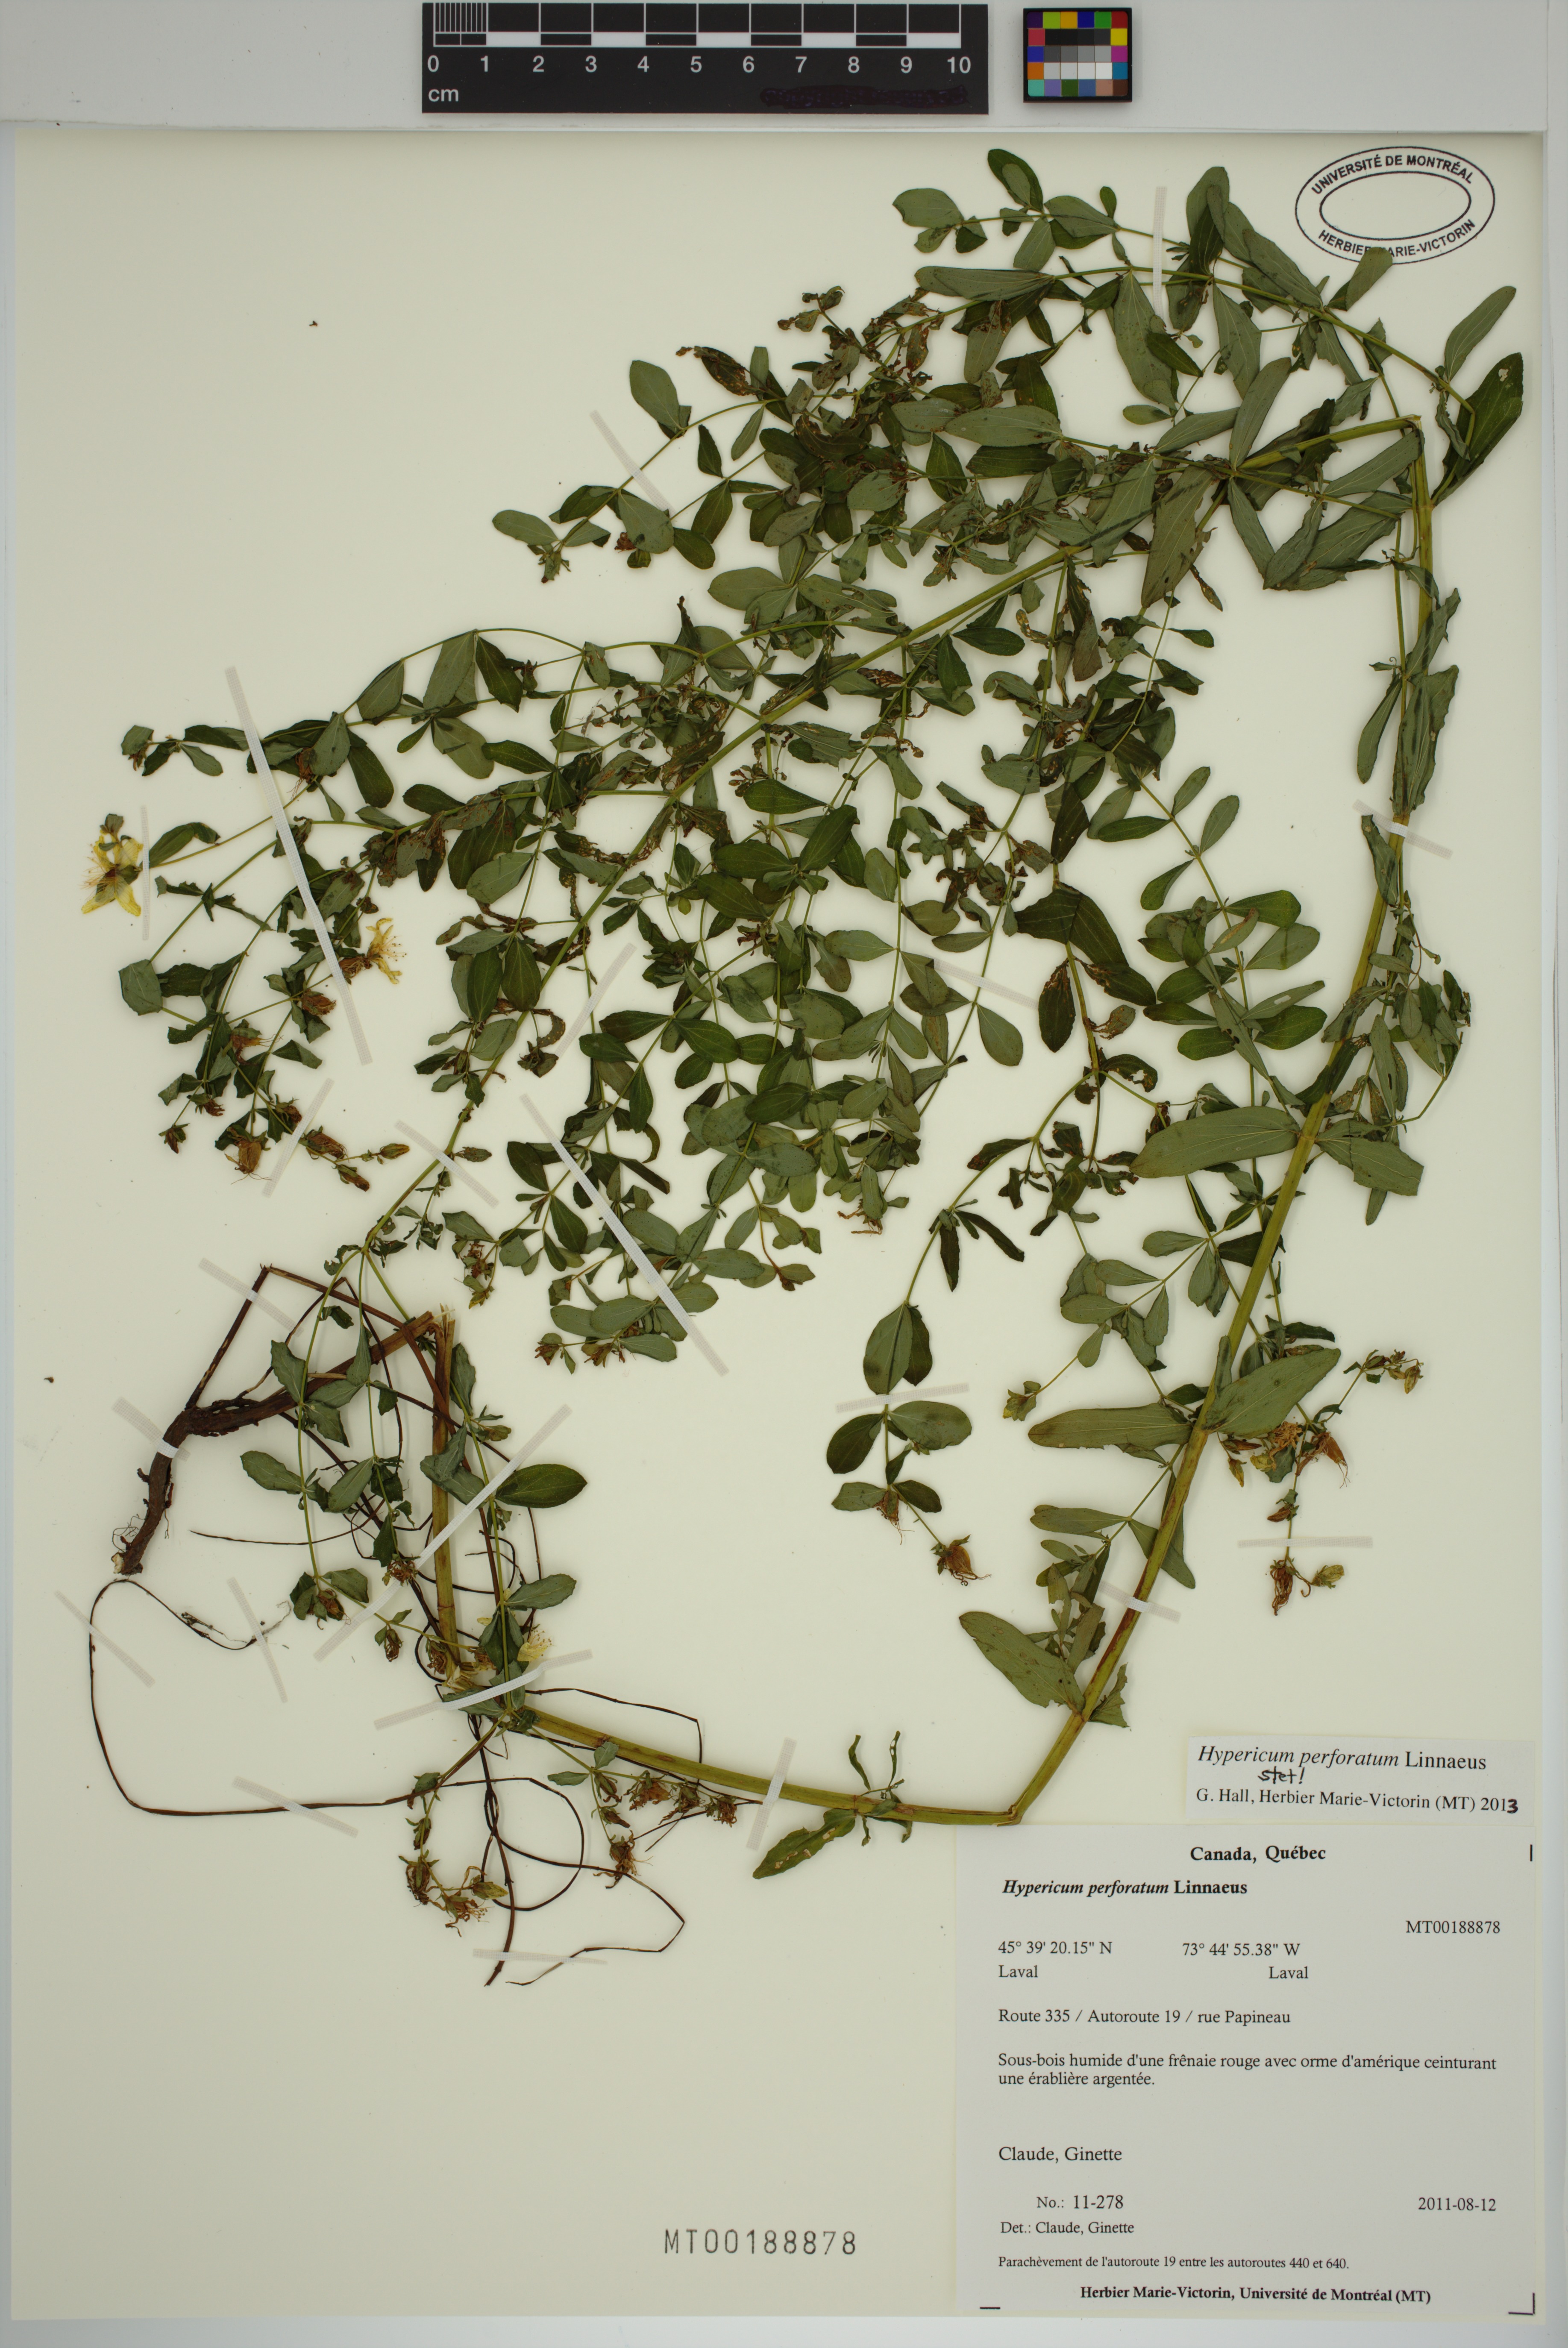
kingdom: Plantae
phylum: Tracheophyta
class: Magnoliopsida
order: Malpighiales
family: Hypericaceae
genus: Hypericum
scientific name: Hypericum perforatum
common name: Common st. johnswort
